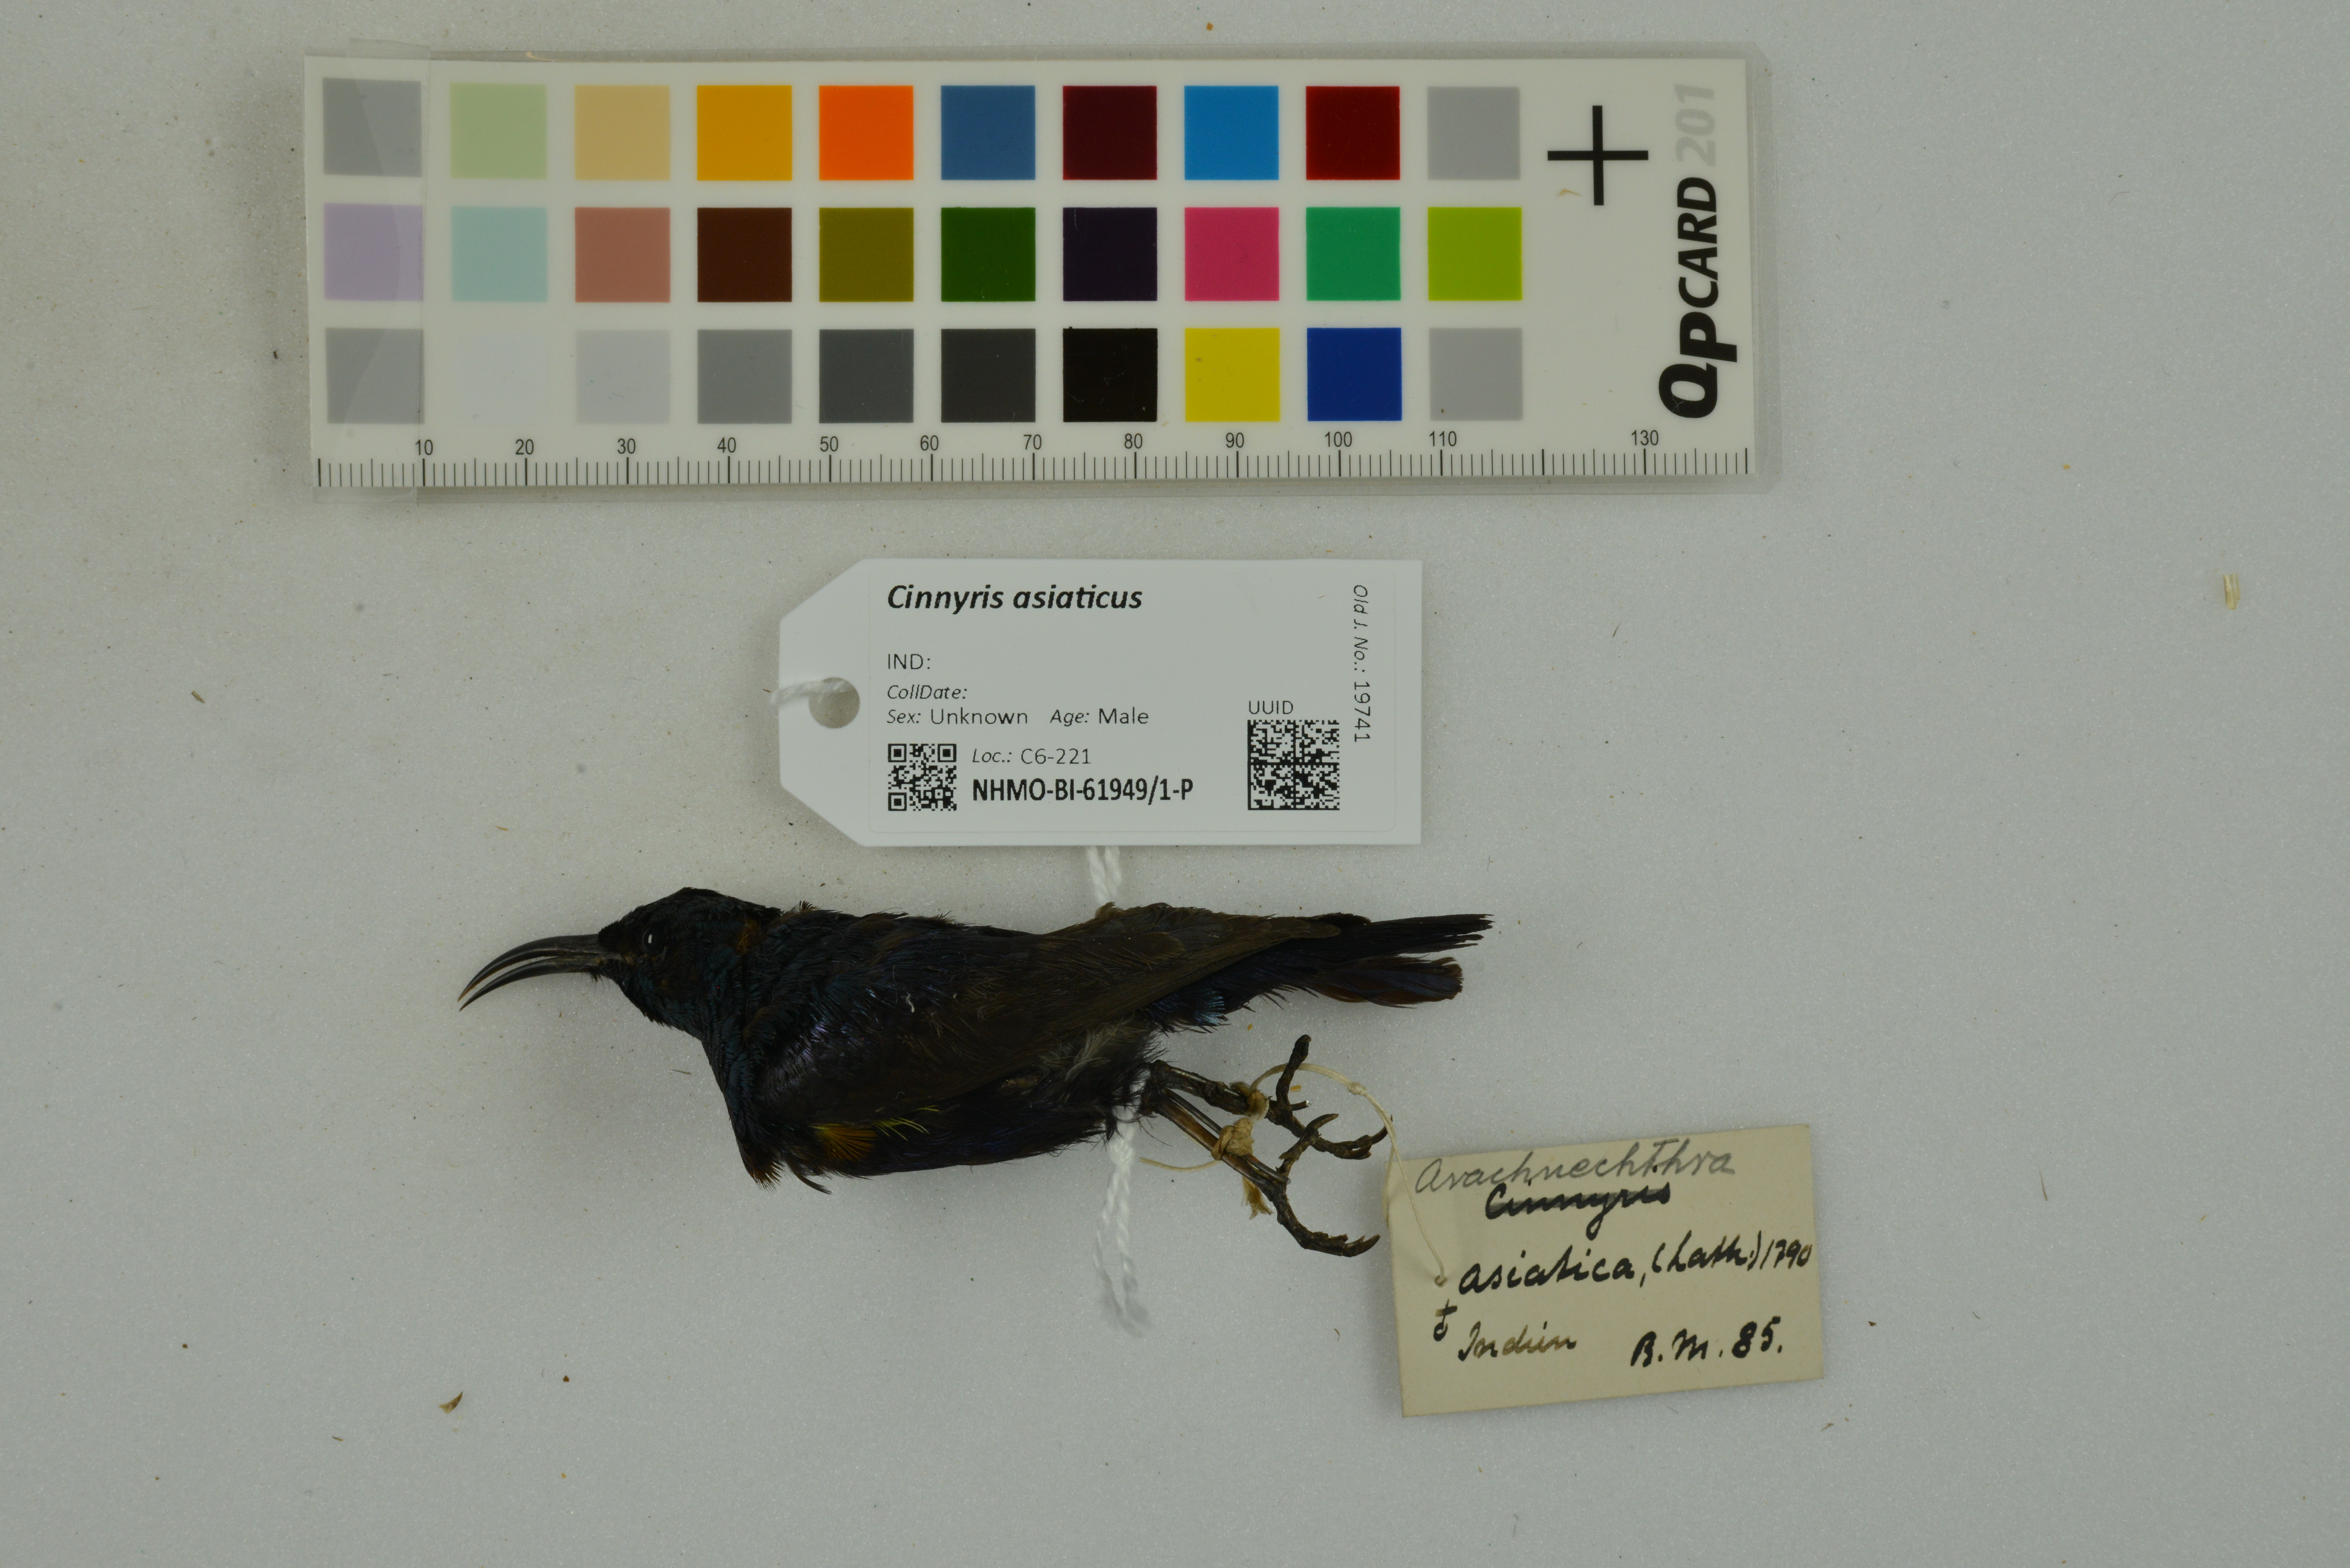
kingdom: Animalia
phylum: Chordata
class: Aves
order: Passeriformes
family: Nectariniidae
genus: Cinnyris
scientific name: Cinnyris asiaticus
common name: Purple sunbird
